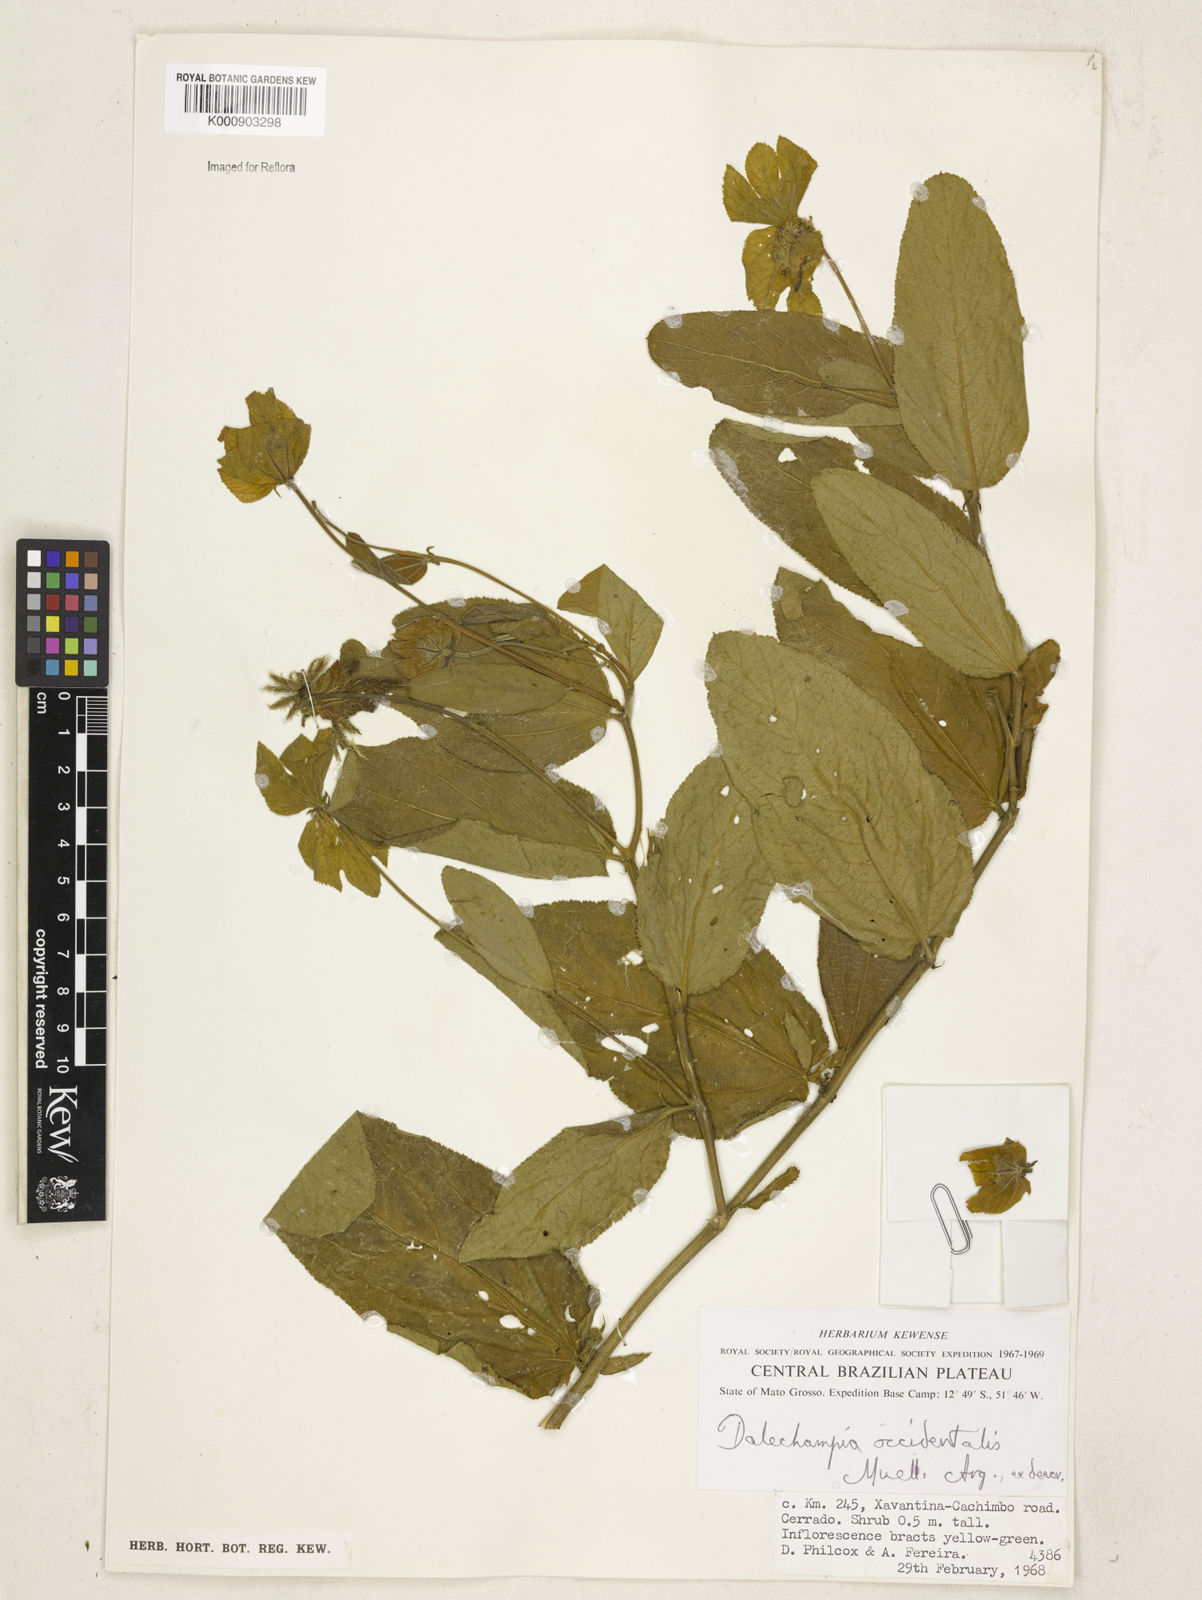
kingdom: Plantae
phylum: Tracheophyta
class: Magnoliopsida
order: Malpighiales
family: Euphorbiaceae
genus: Dalechampia
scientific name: Dalechampia
